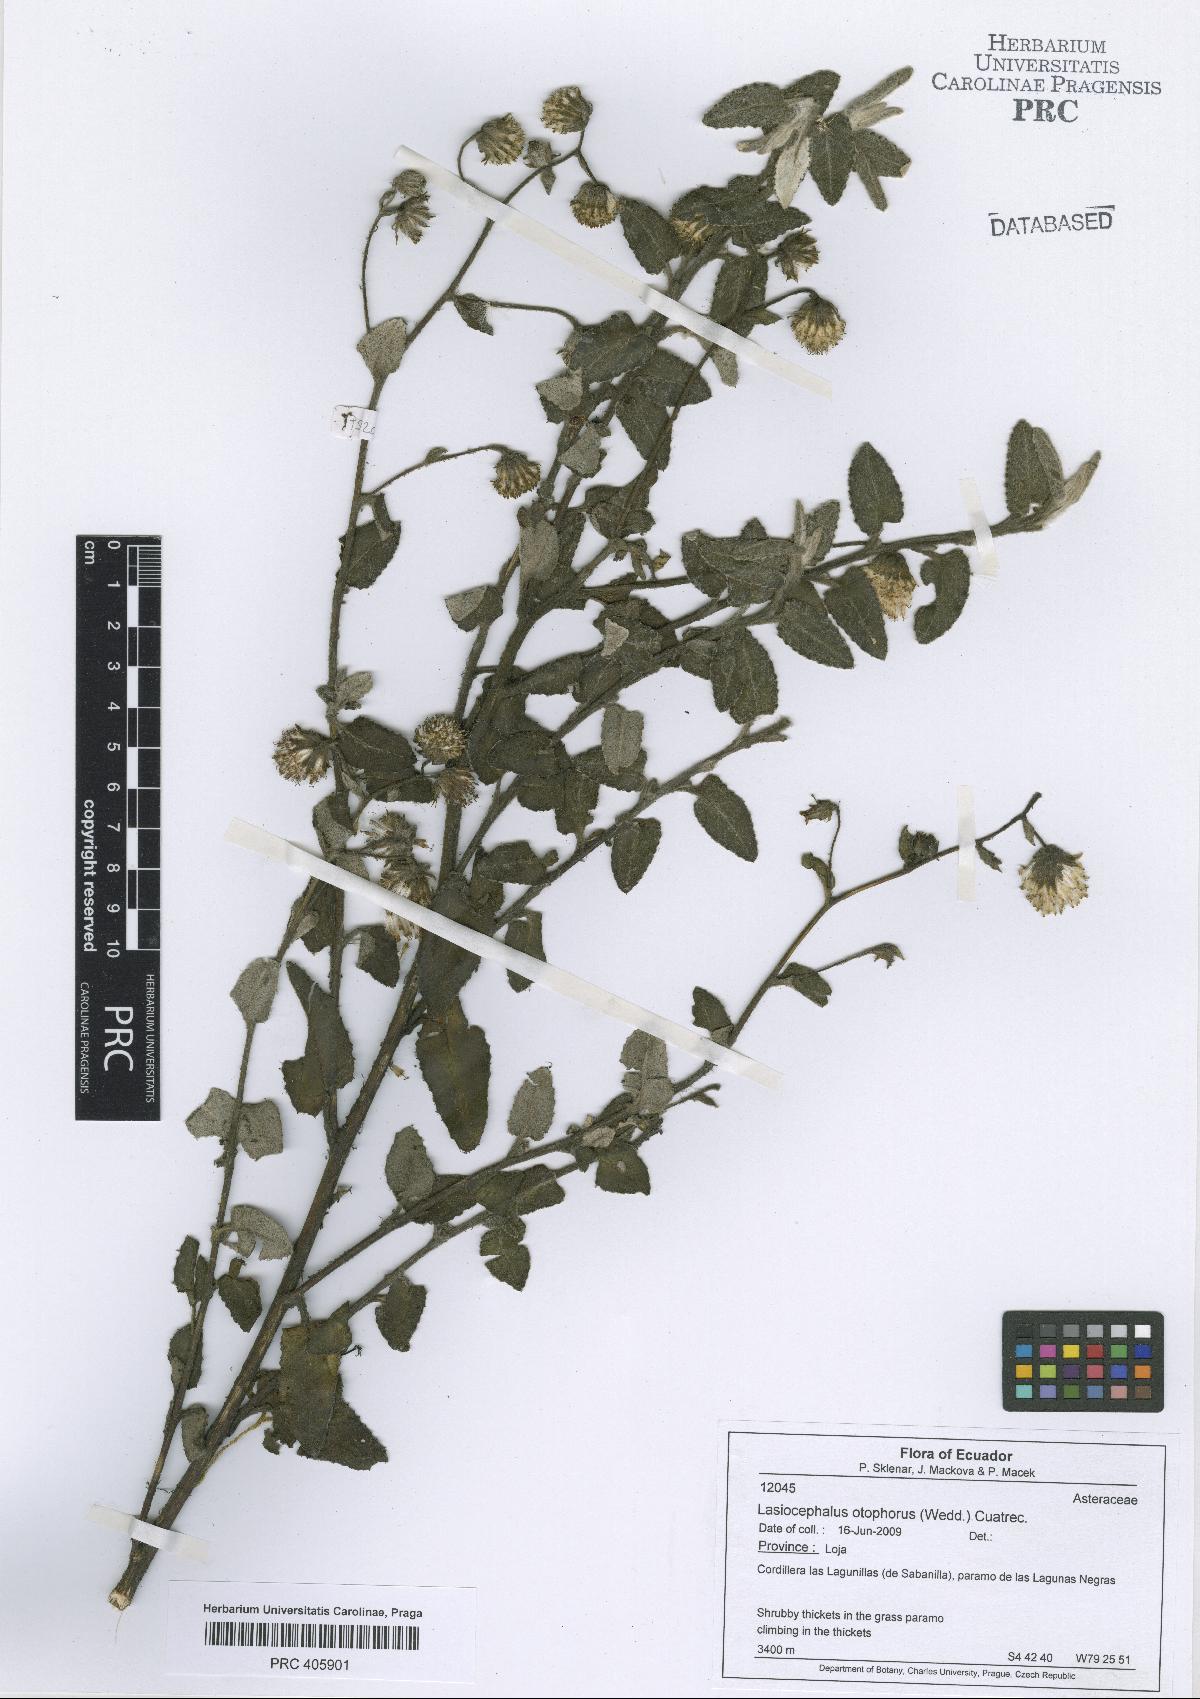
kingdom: Plantae
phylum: Tracheophyta
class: Magnoliopsida
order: Asterales
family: Asteraceae
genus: Aetheolaena
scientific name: Aetheolaena otophora
